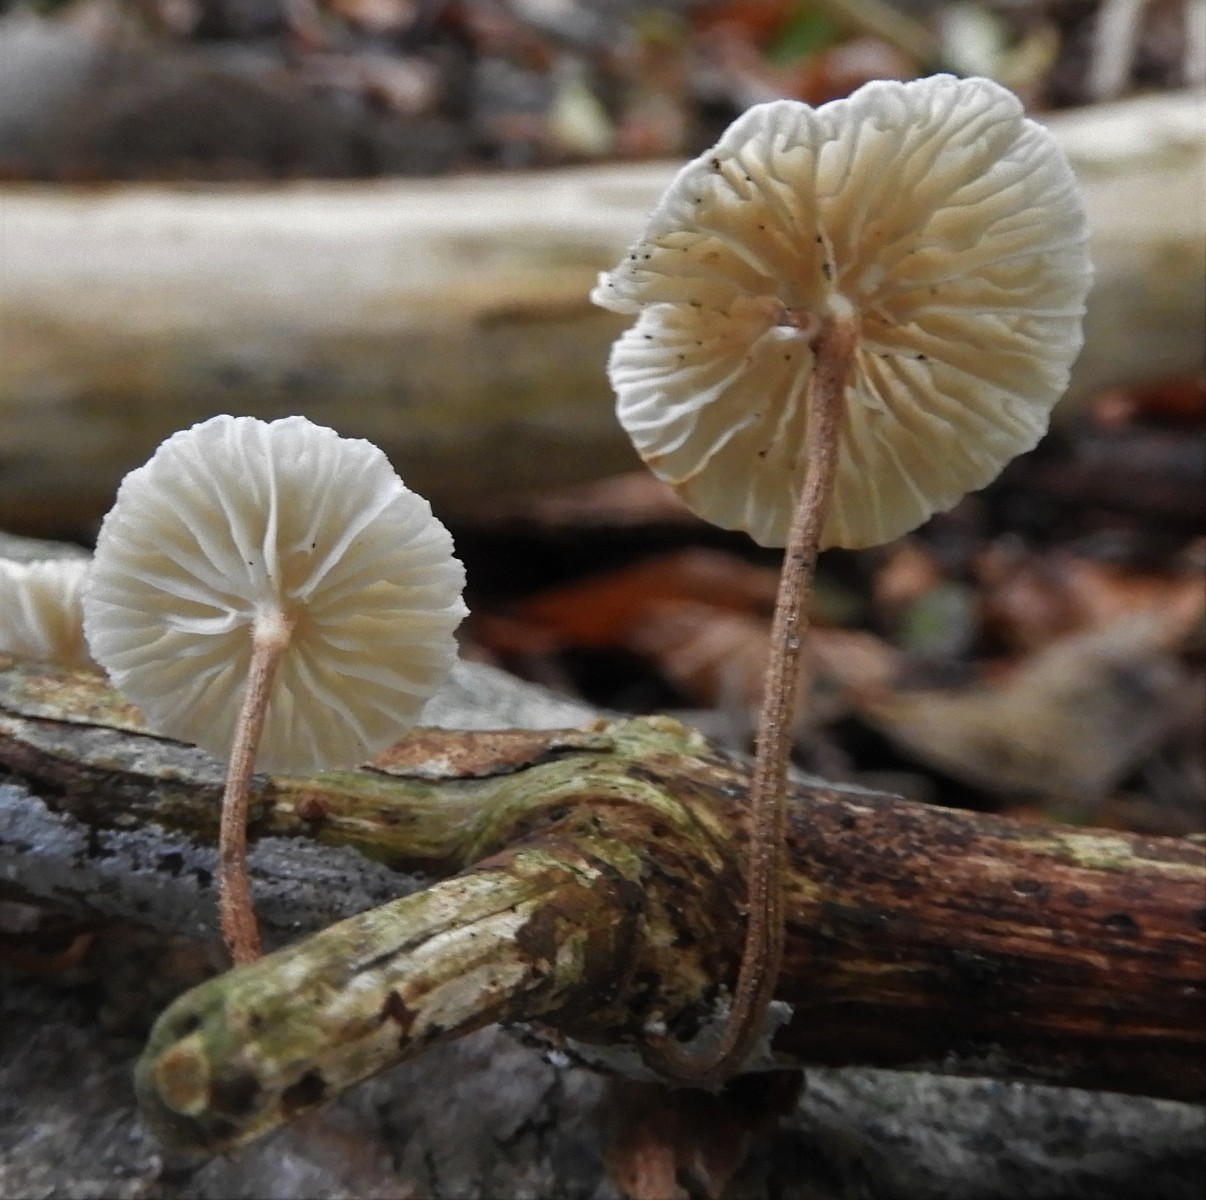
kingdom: Fungi
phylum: Basidiomycota
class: Agaricomycetes
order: Agaricales
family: Marasmiaceae
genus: Crinipellis
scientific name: Crinipellis scabella
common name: børstefod
